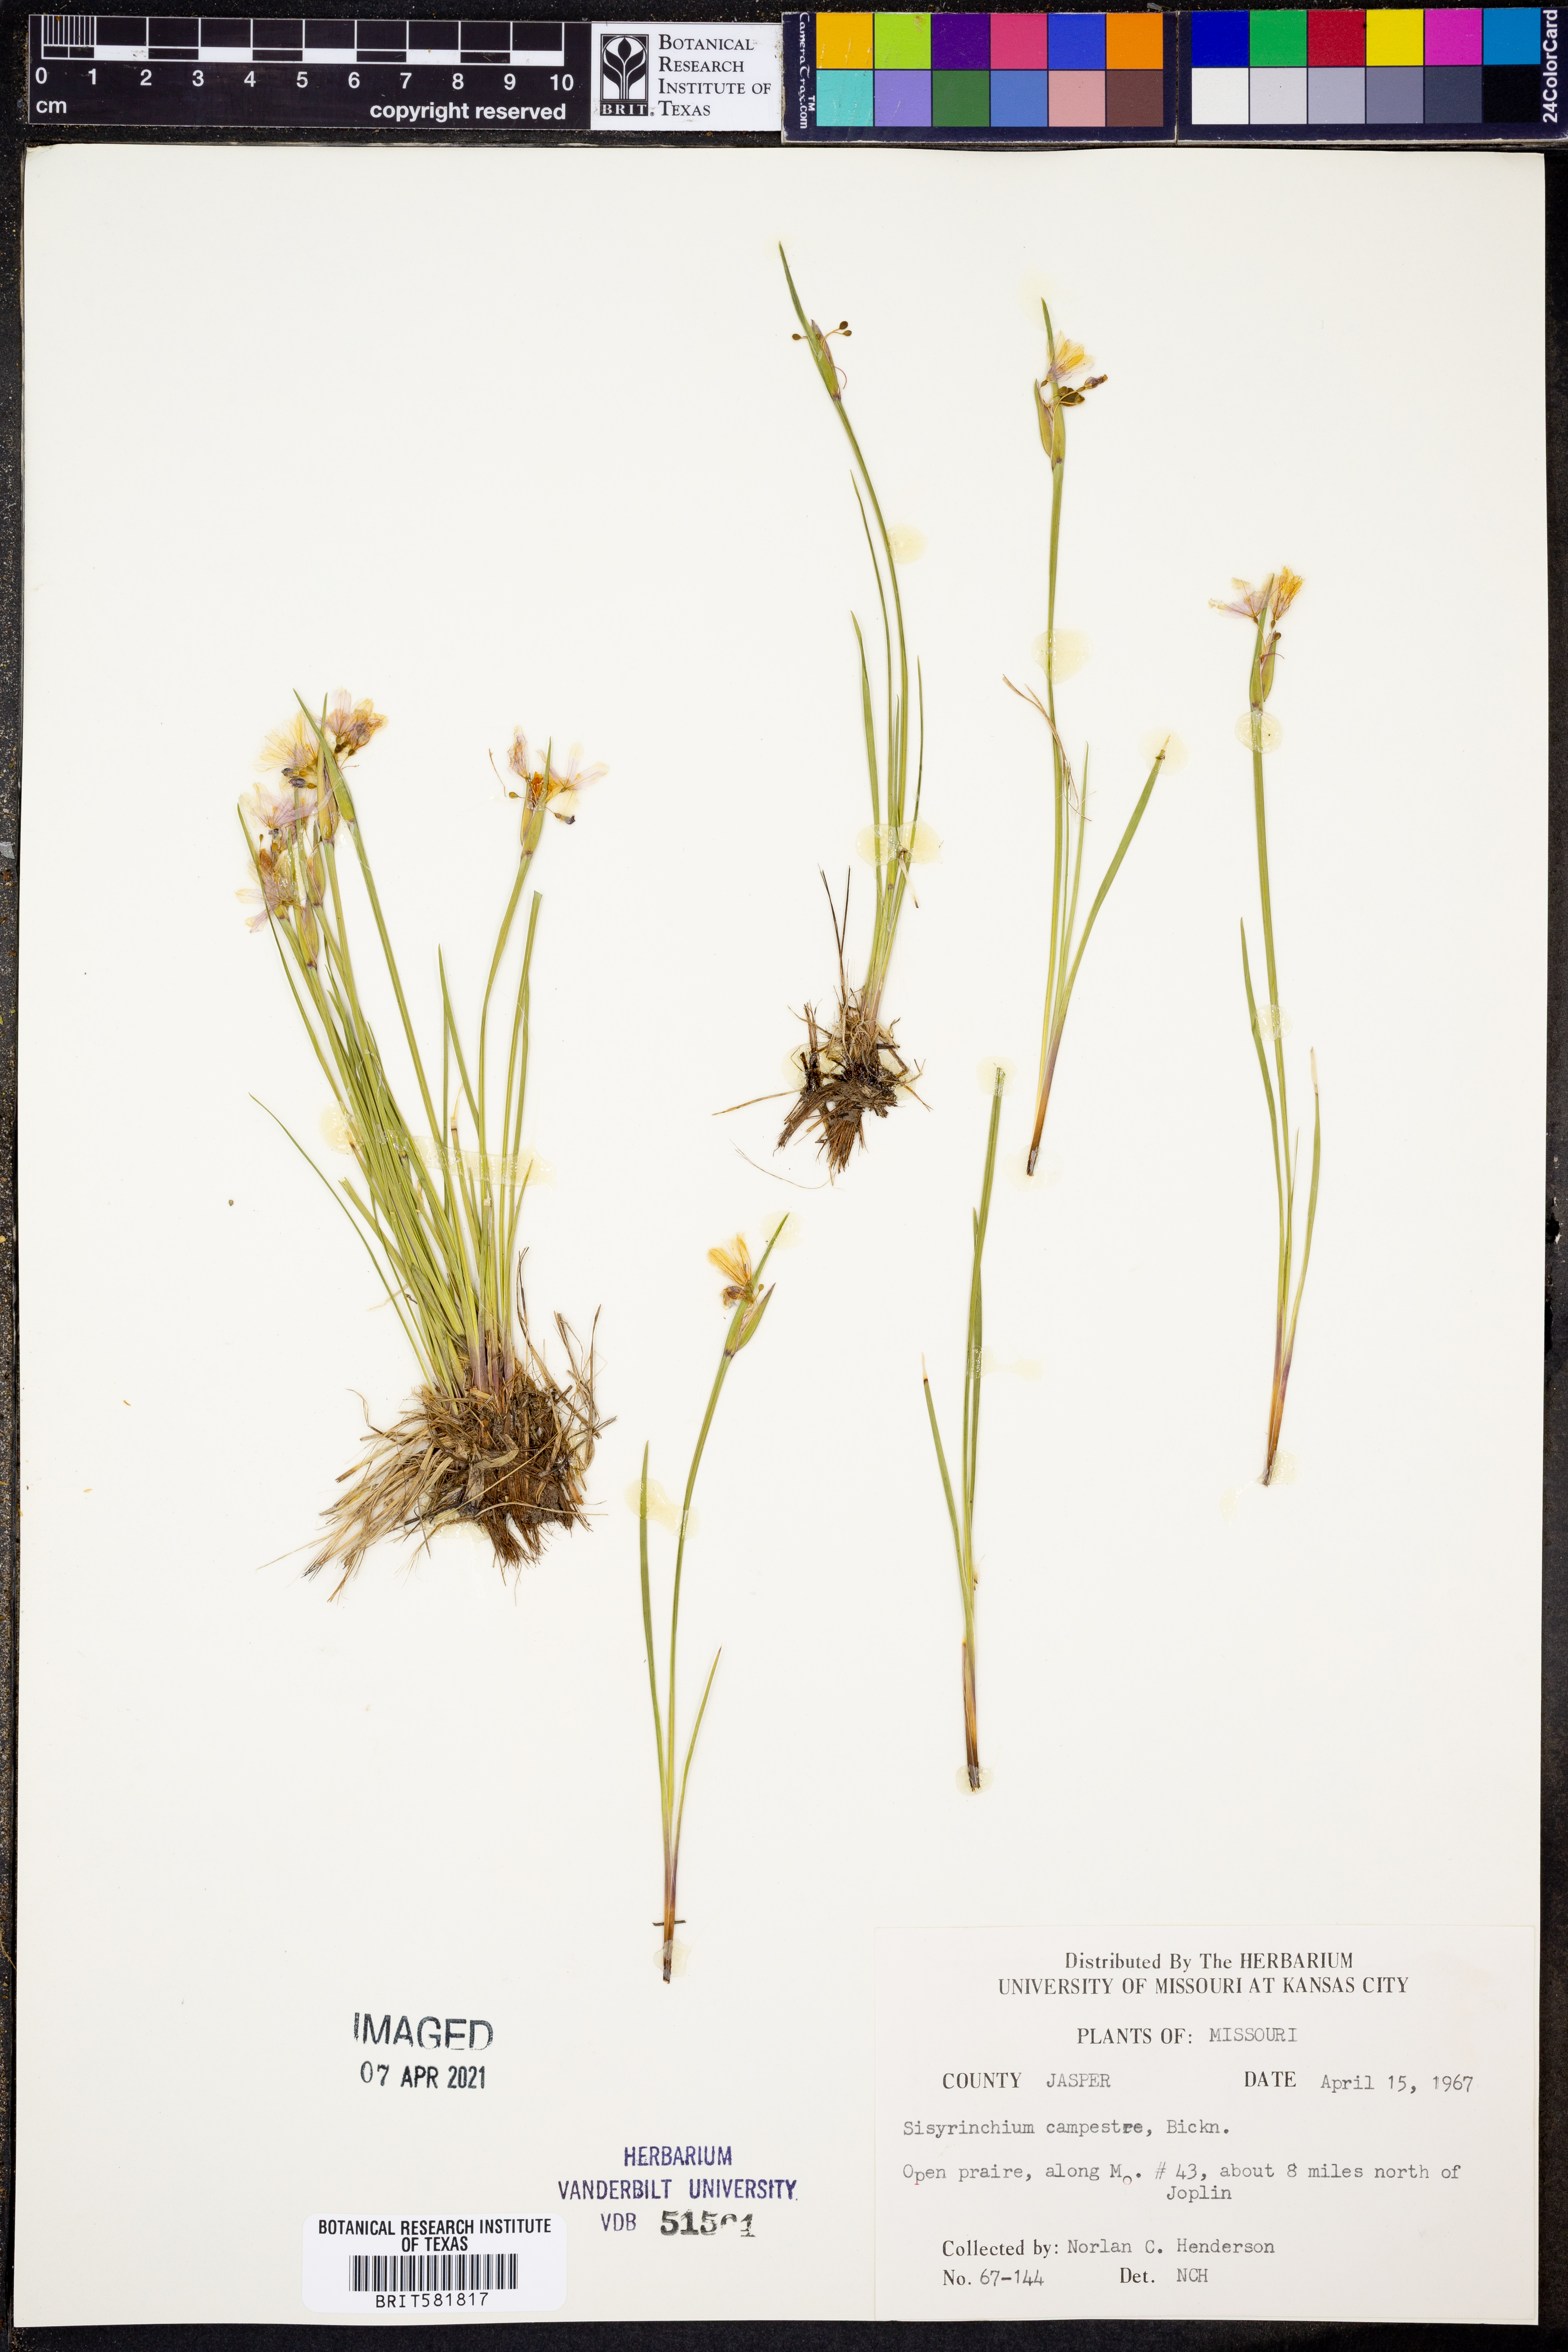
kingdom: Plantae
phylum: Tracheophyta
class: Liliopsida
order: Asparagales
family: Iridaceae
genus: Sisyrinchium
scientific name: Sisyrinchium campestre
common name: Prairie blue-eyed-grass
